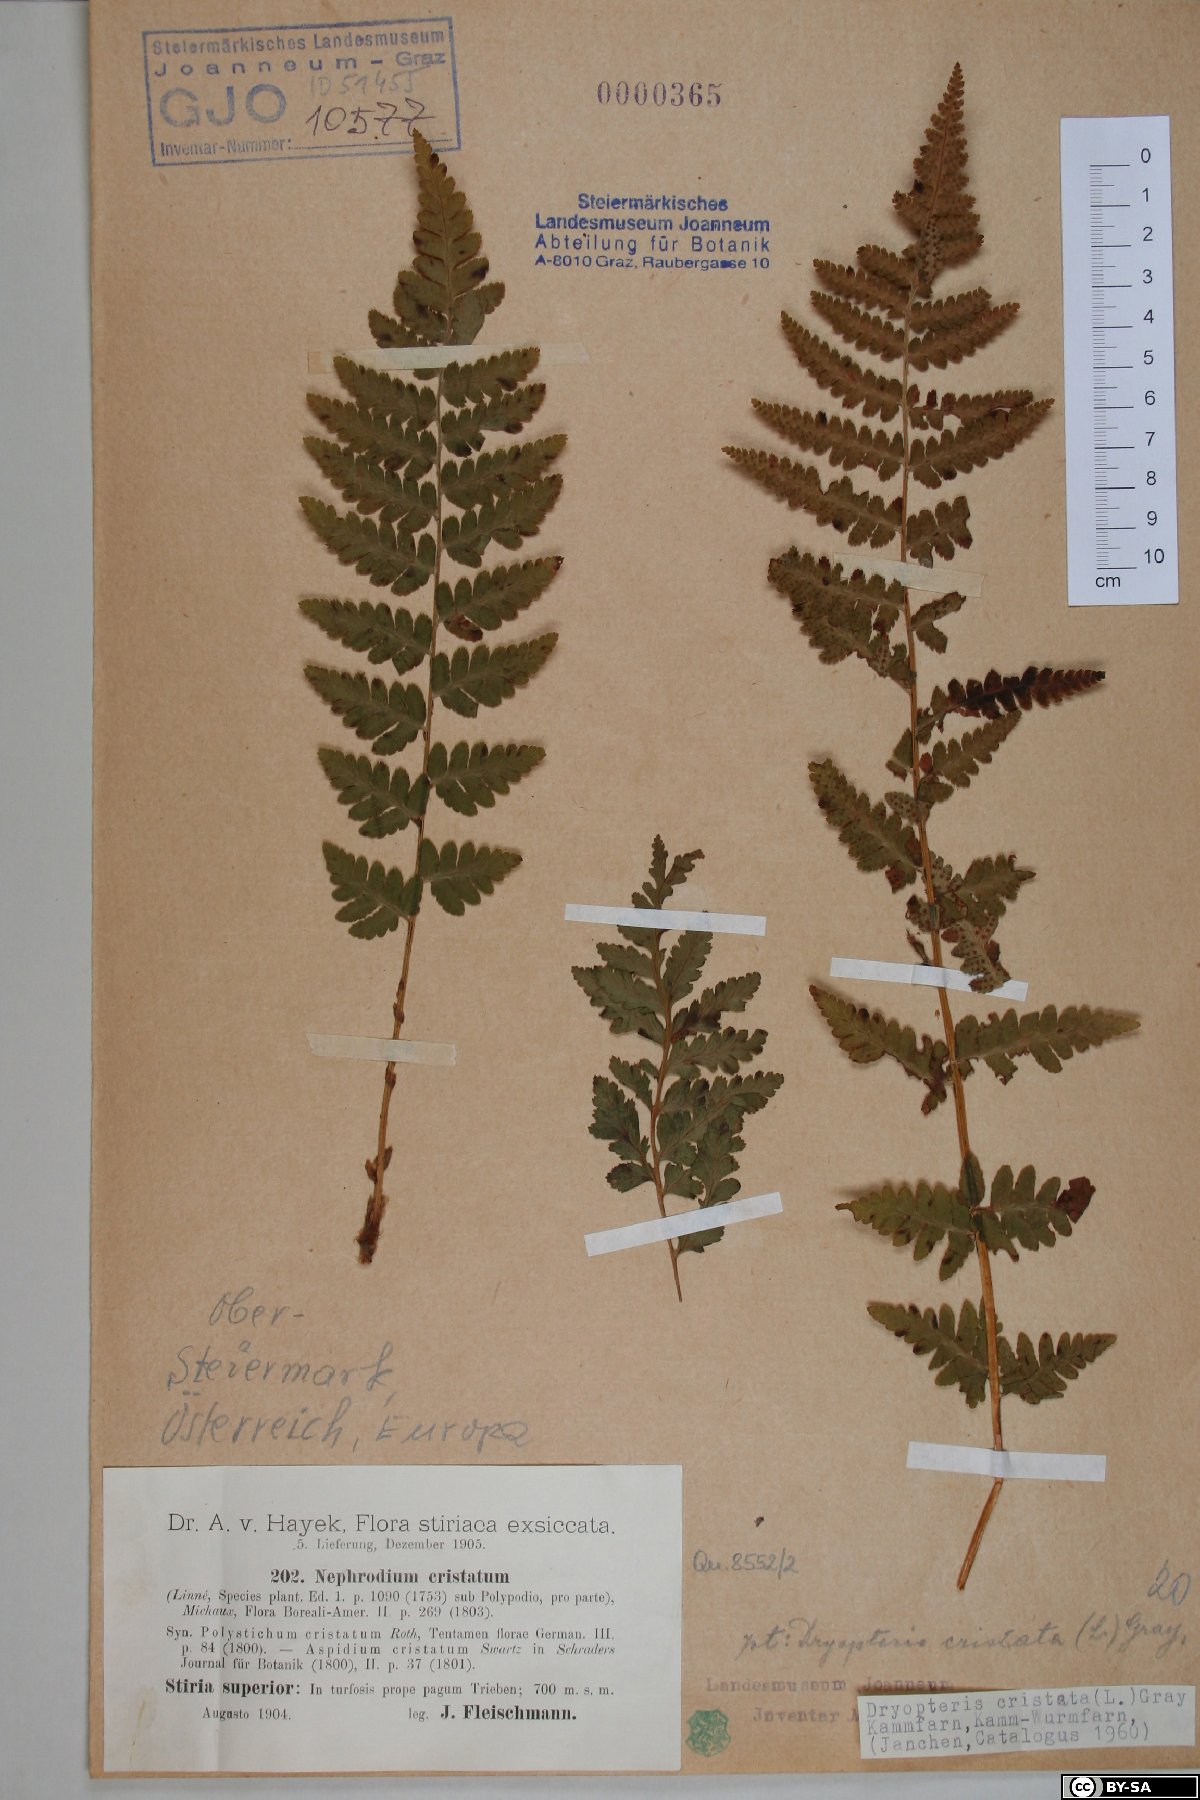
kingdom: Plantae
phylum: Tracheophyta
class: Polypodiopsida
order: Polypodiales
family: Dryopteridaceae
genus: Dryopteris
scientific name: Dryopteris cristata
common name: Crested wood fern
